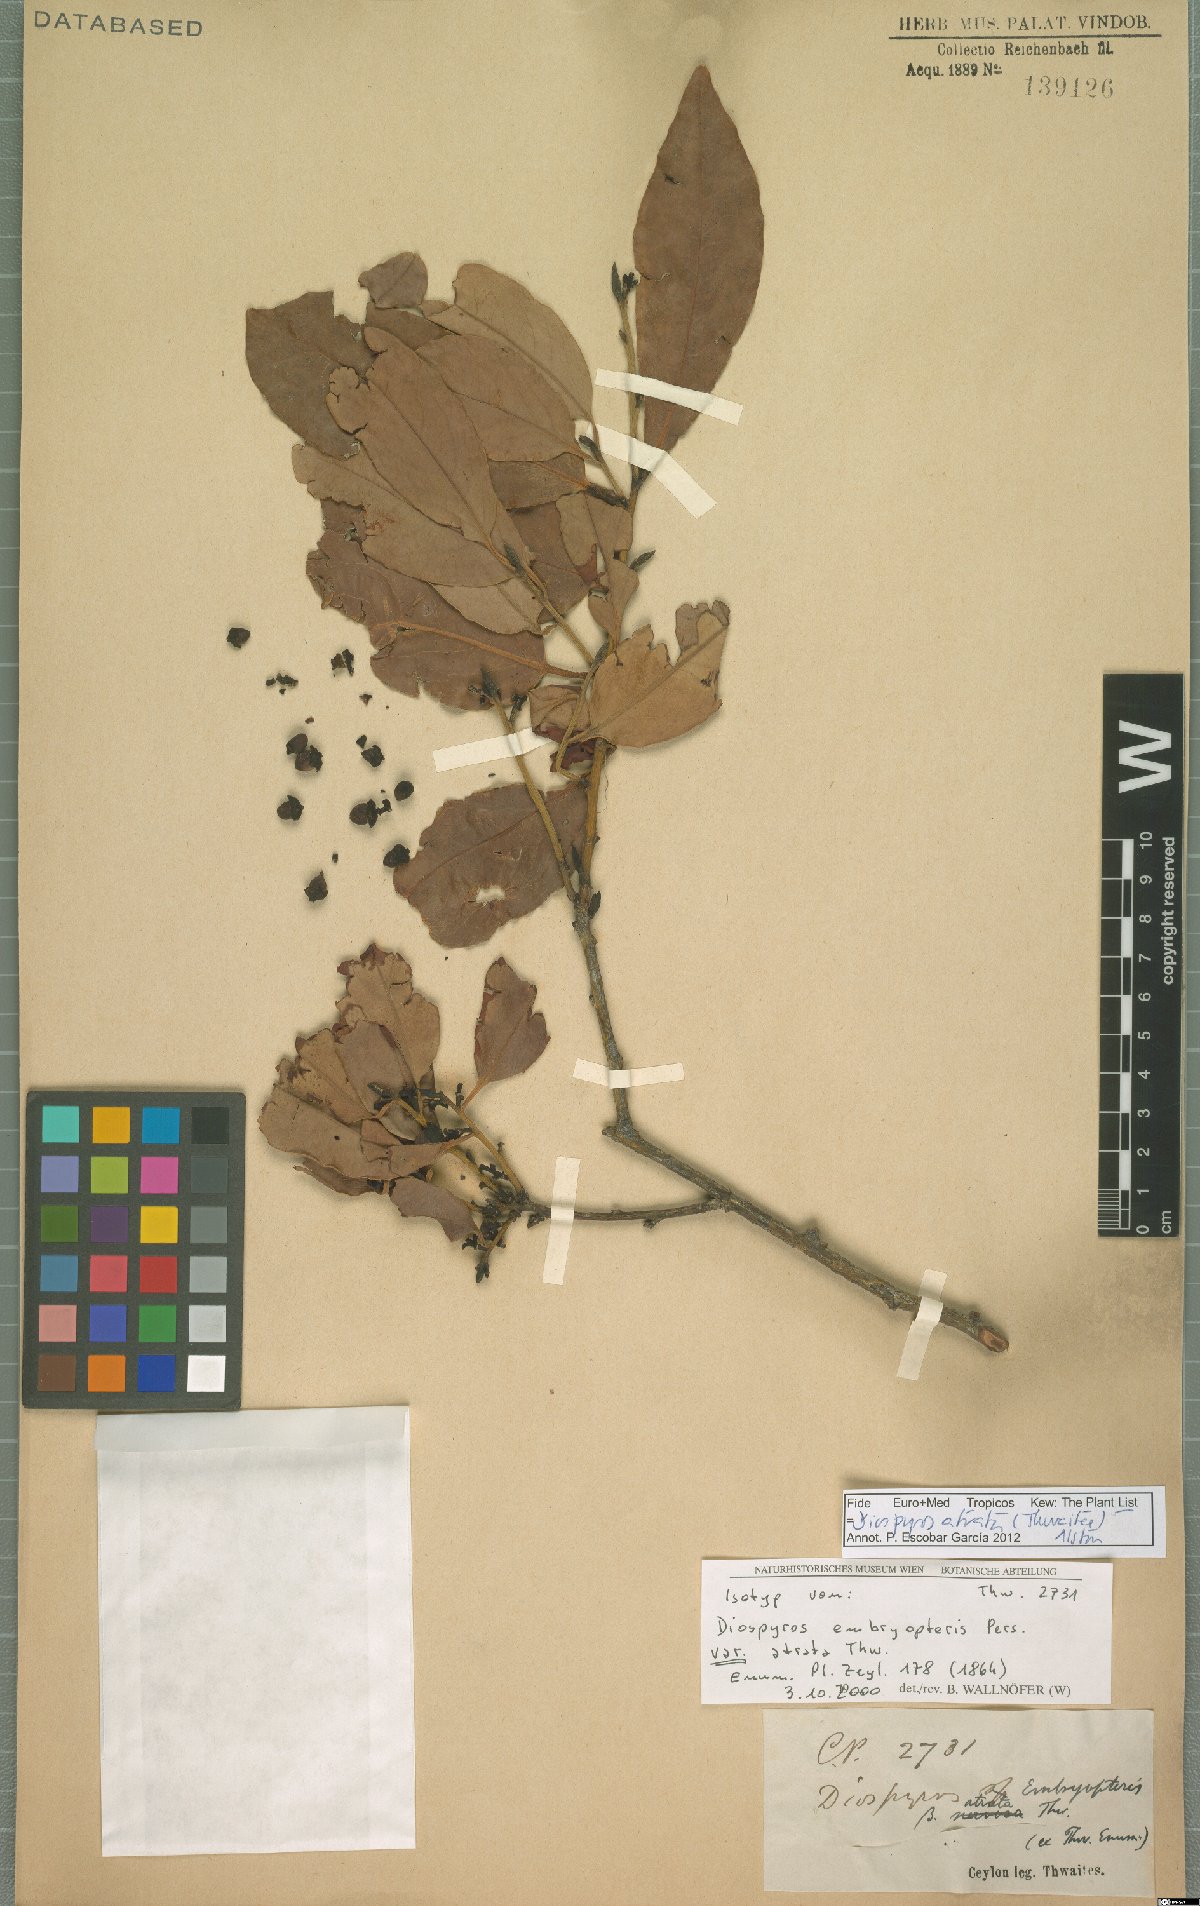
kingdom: Plantae
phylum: Tracheophyta
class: Magnoliopsida
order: Ericales
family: Ebenaceae
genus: Diospyros
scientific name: Diospyros atrata
